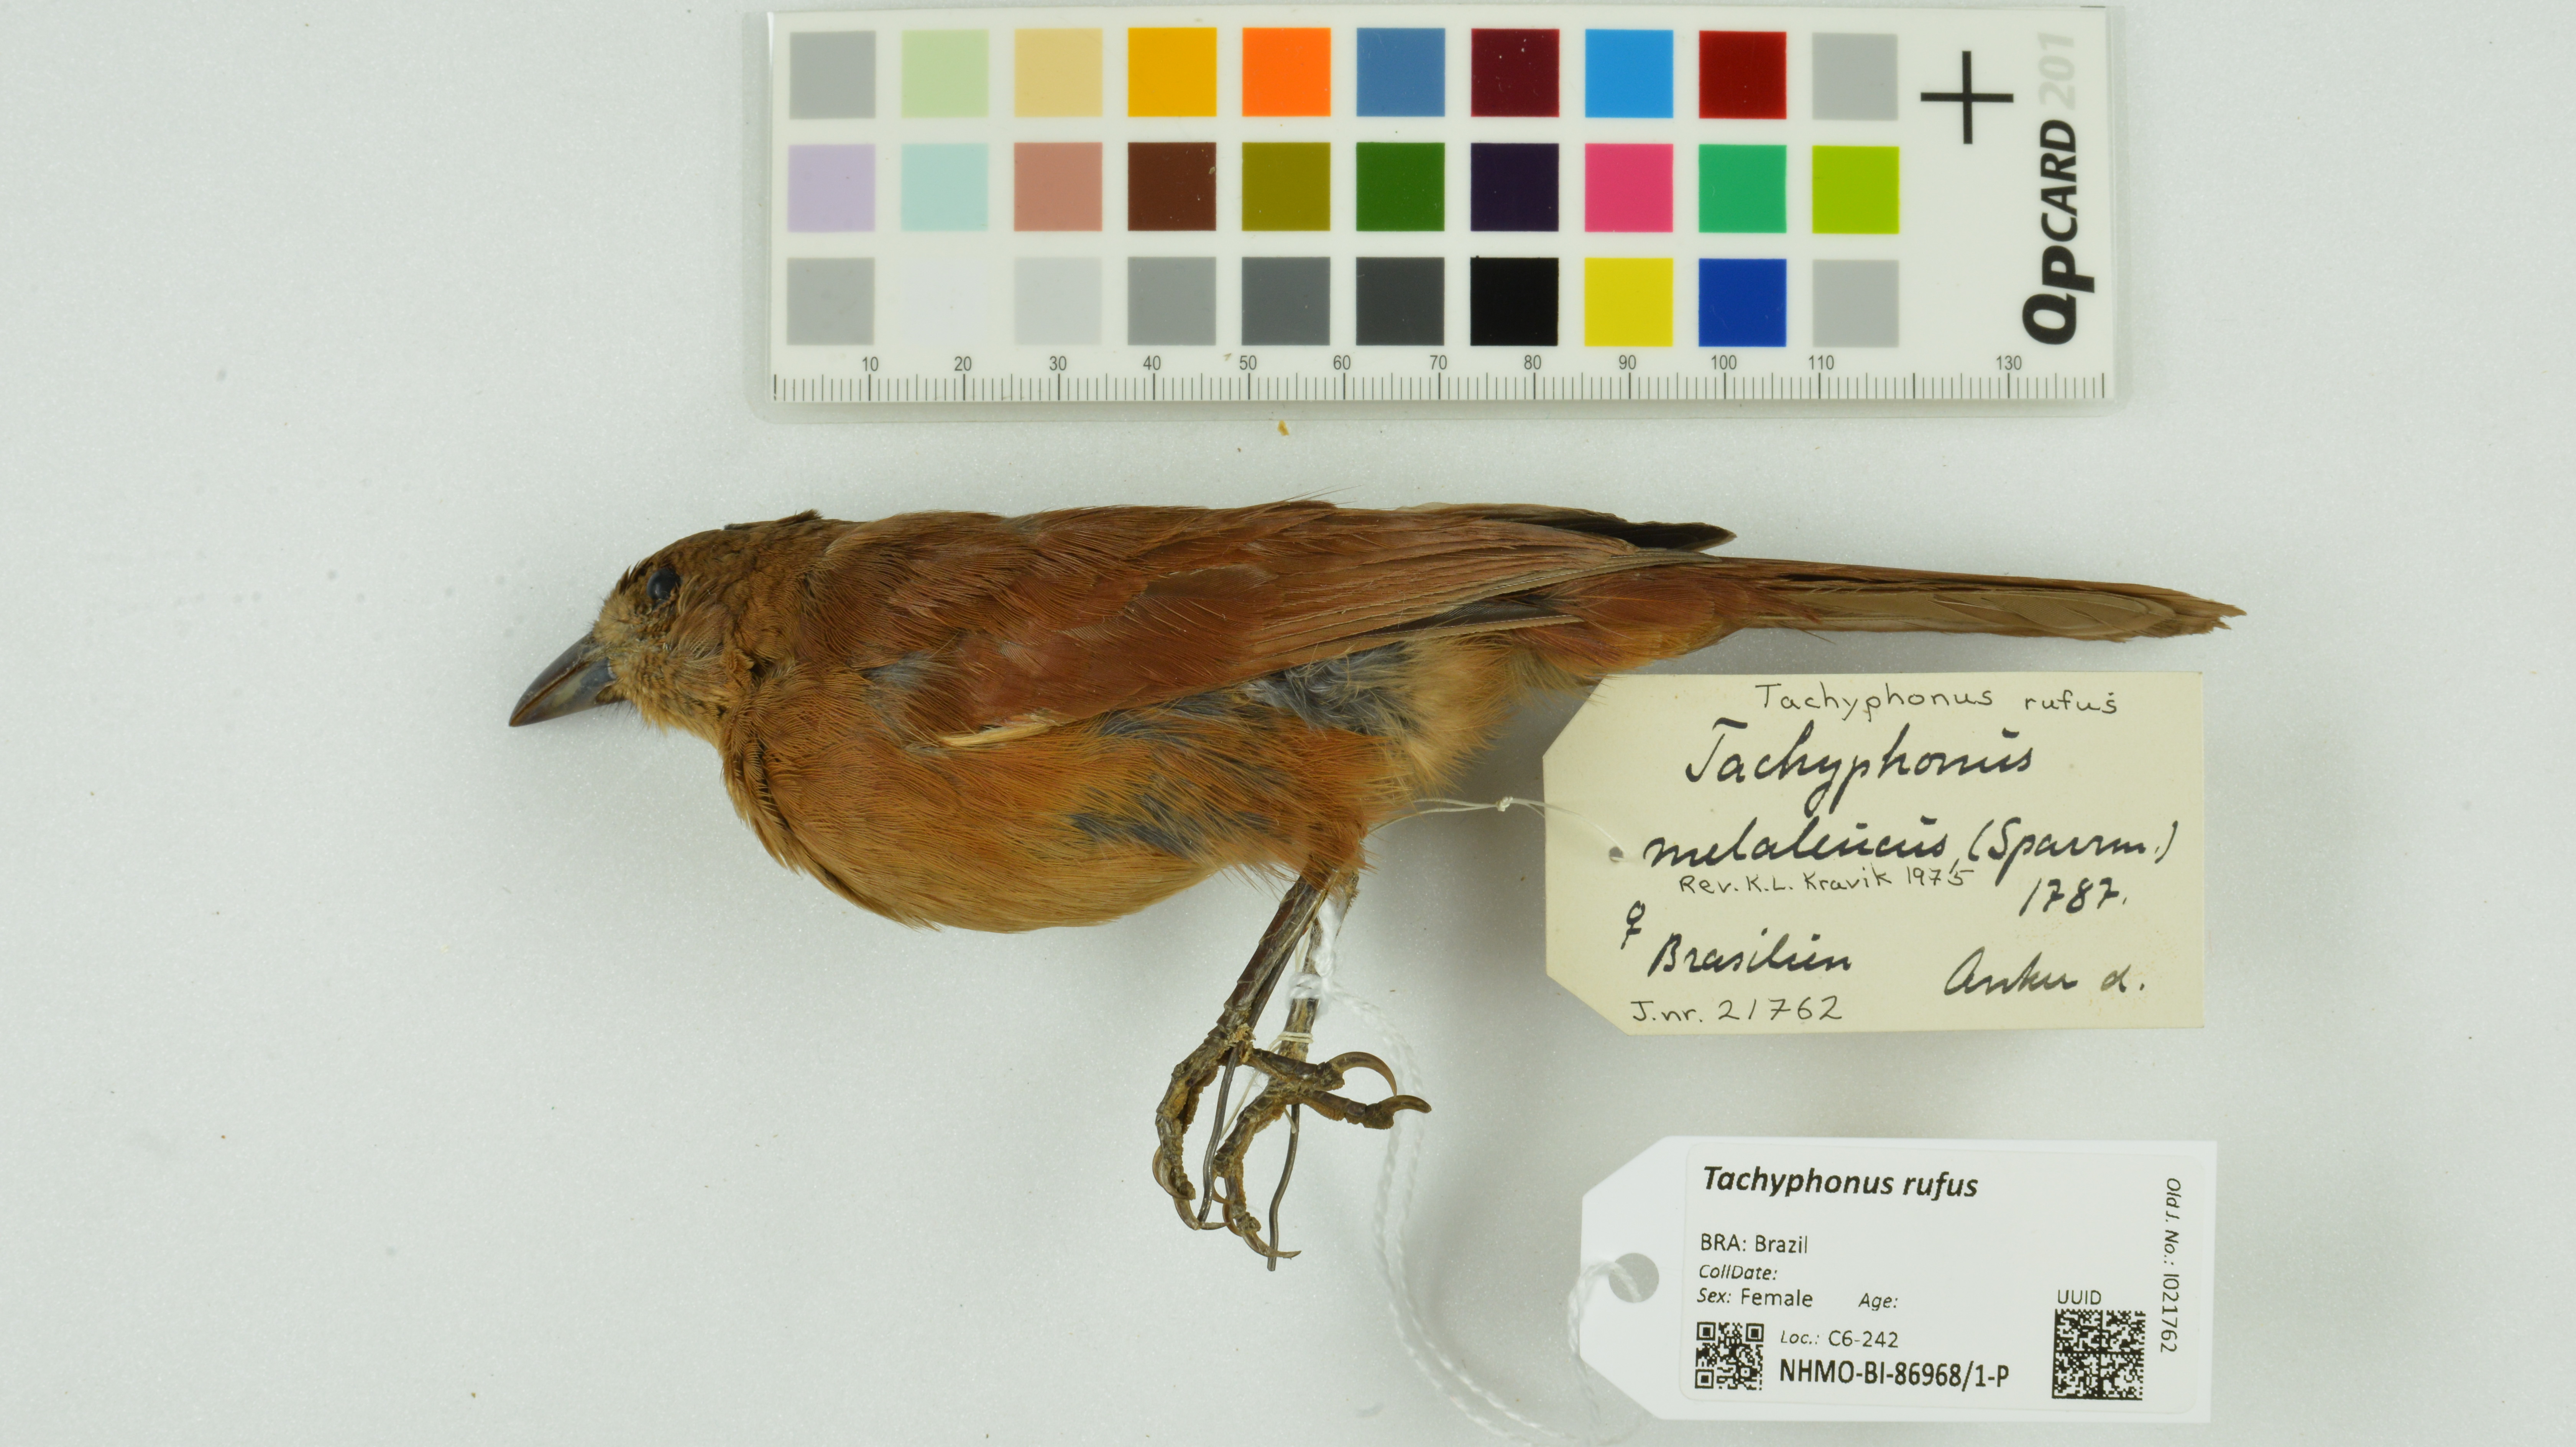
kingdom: Animalia
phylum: Chordata
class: Aves
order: Passeriformes
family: Thraupidae
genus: Tachyphonus
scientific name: Tachyphonus rufus
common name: White-lined tanager
